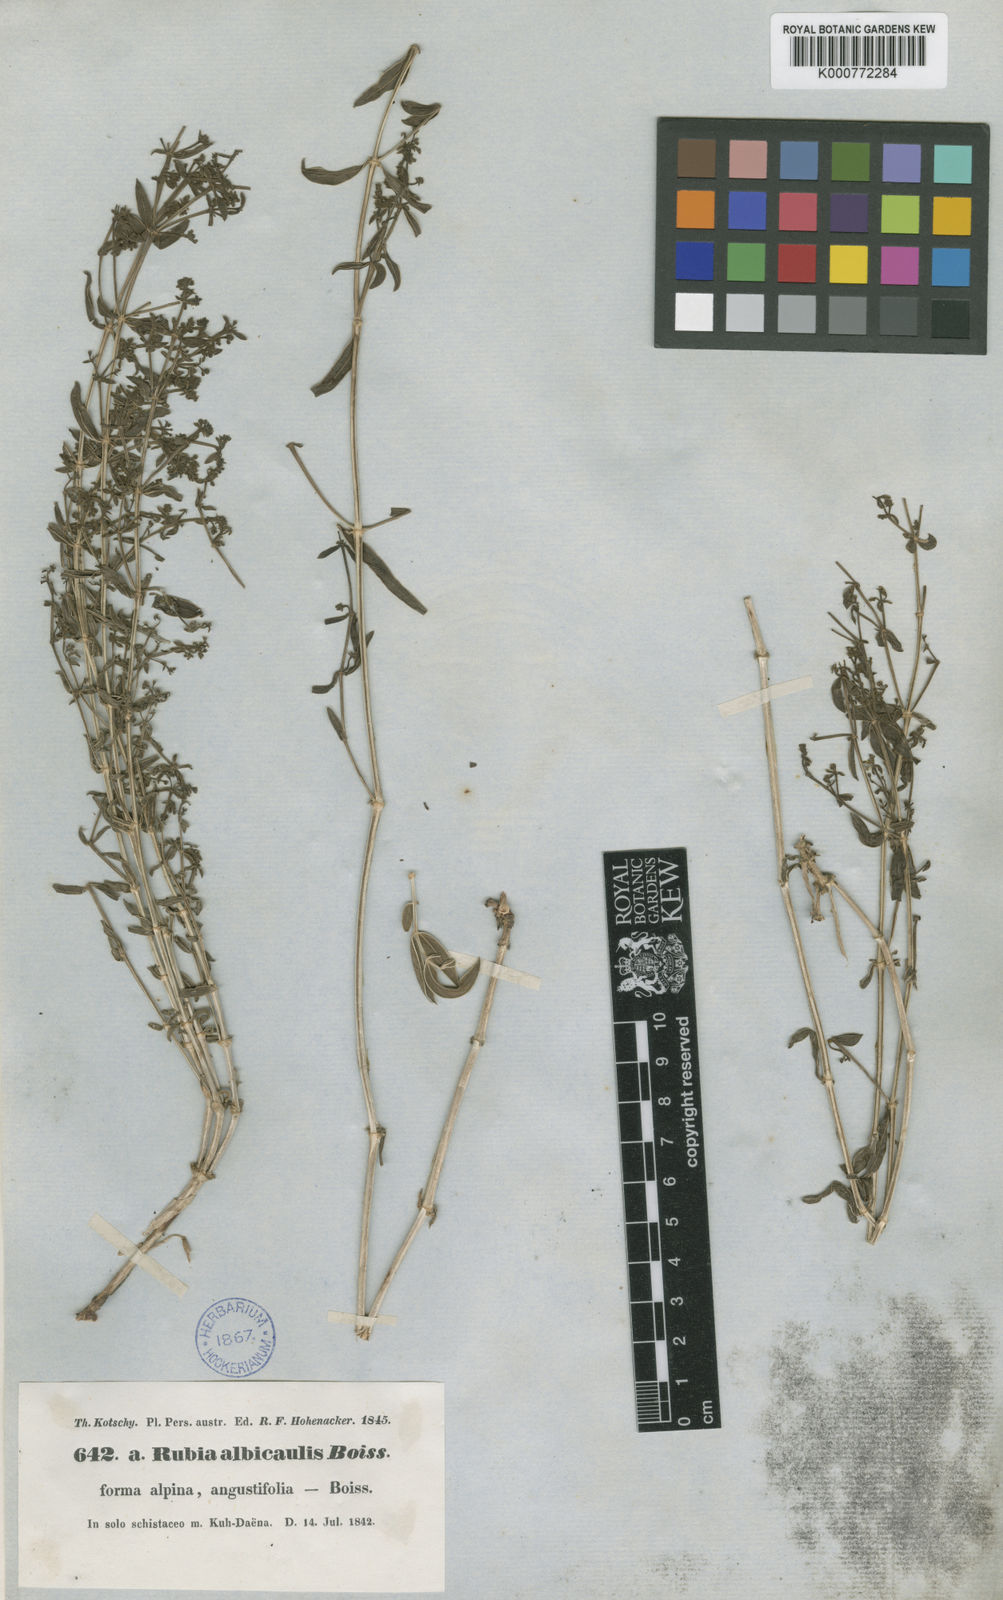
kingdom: Plantae
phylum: Tracheophyta
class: Magnoliopsida
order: Gentianales
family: Rubiaceae
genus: Rubia
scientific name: Rubia albicaulis
